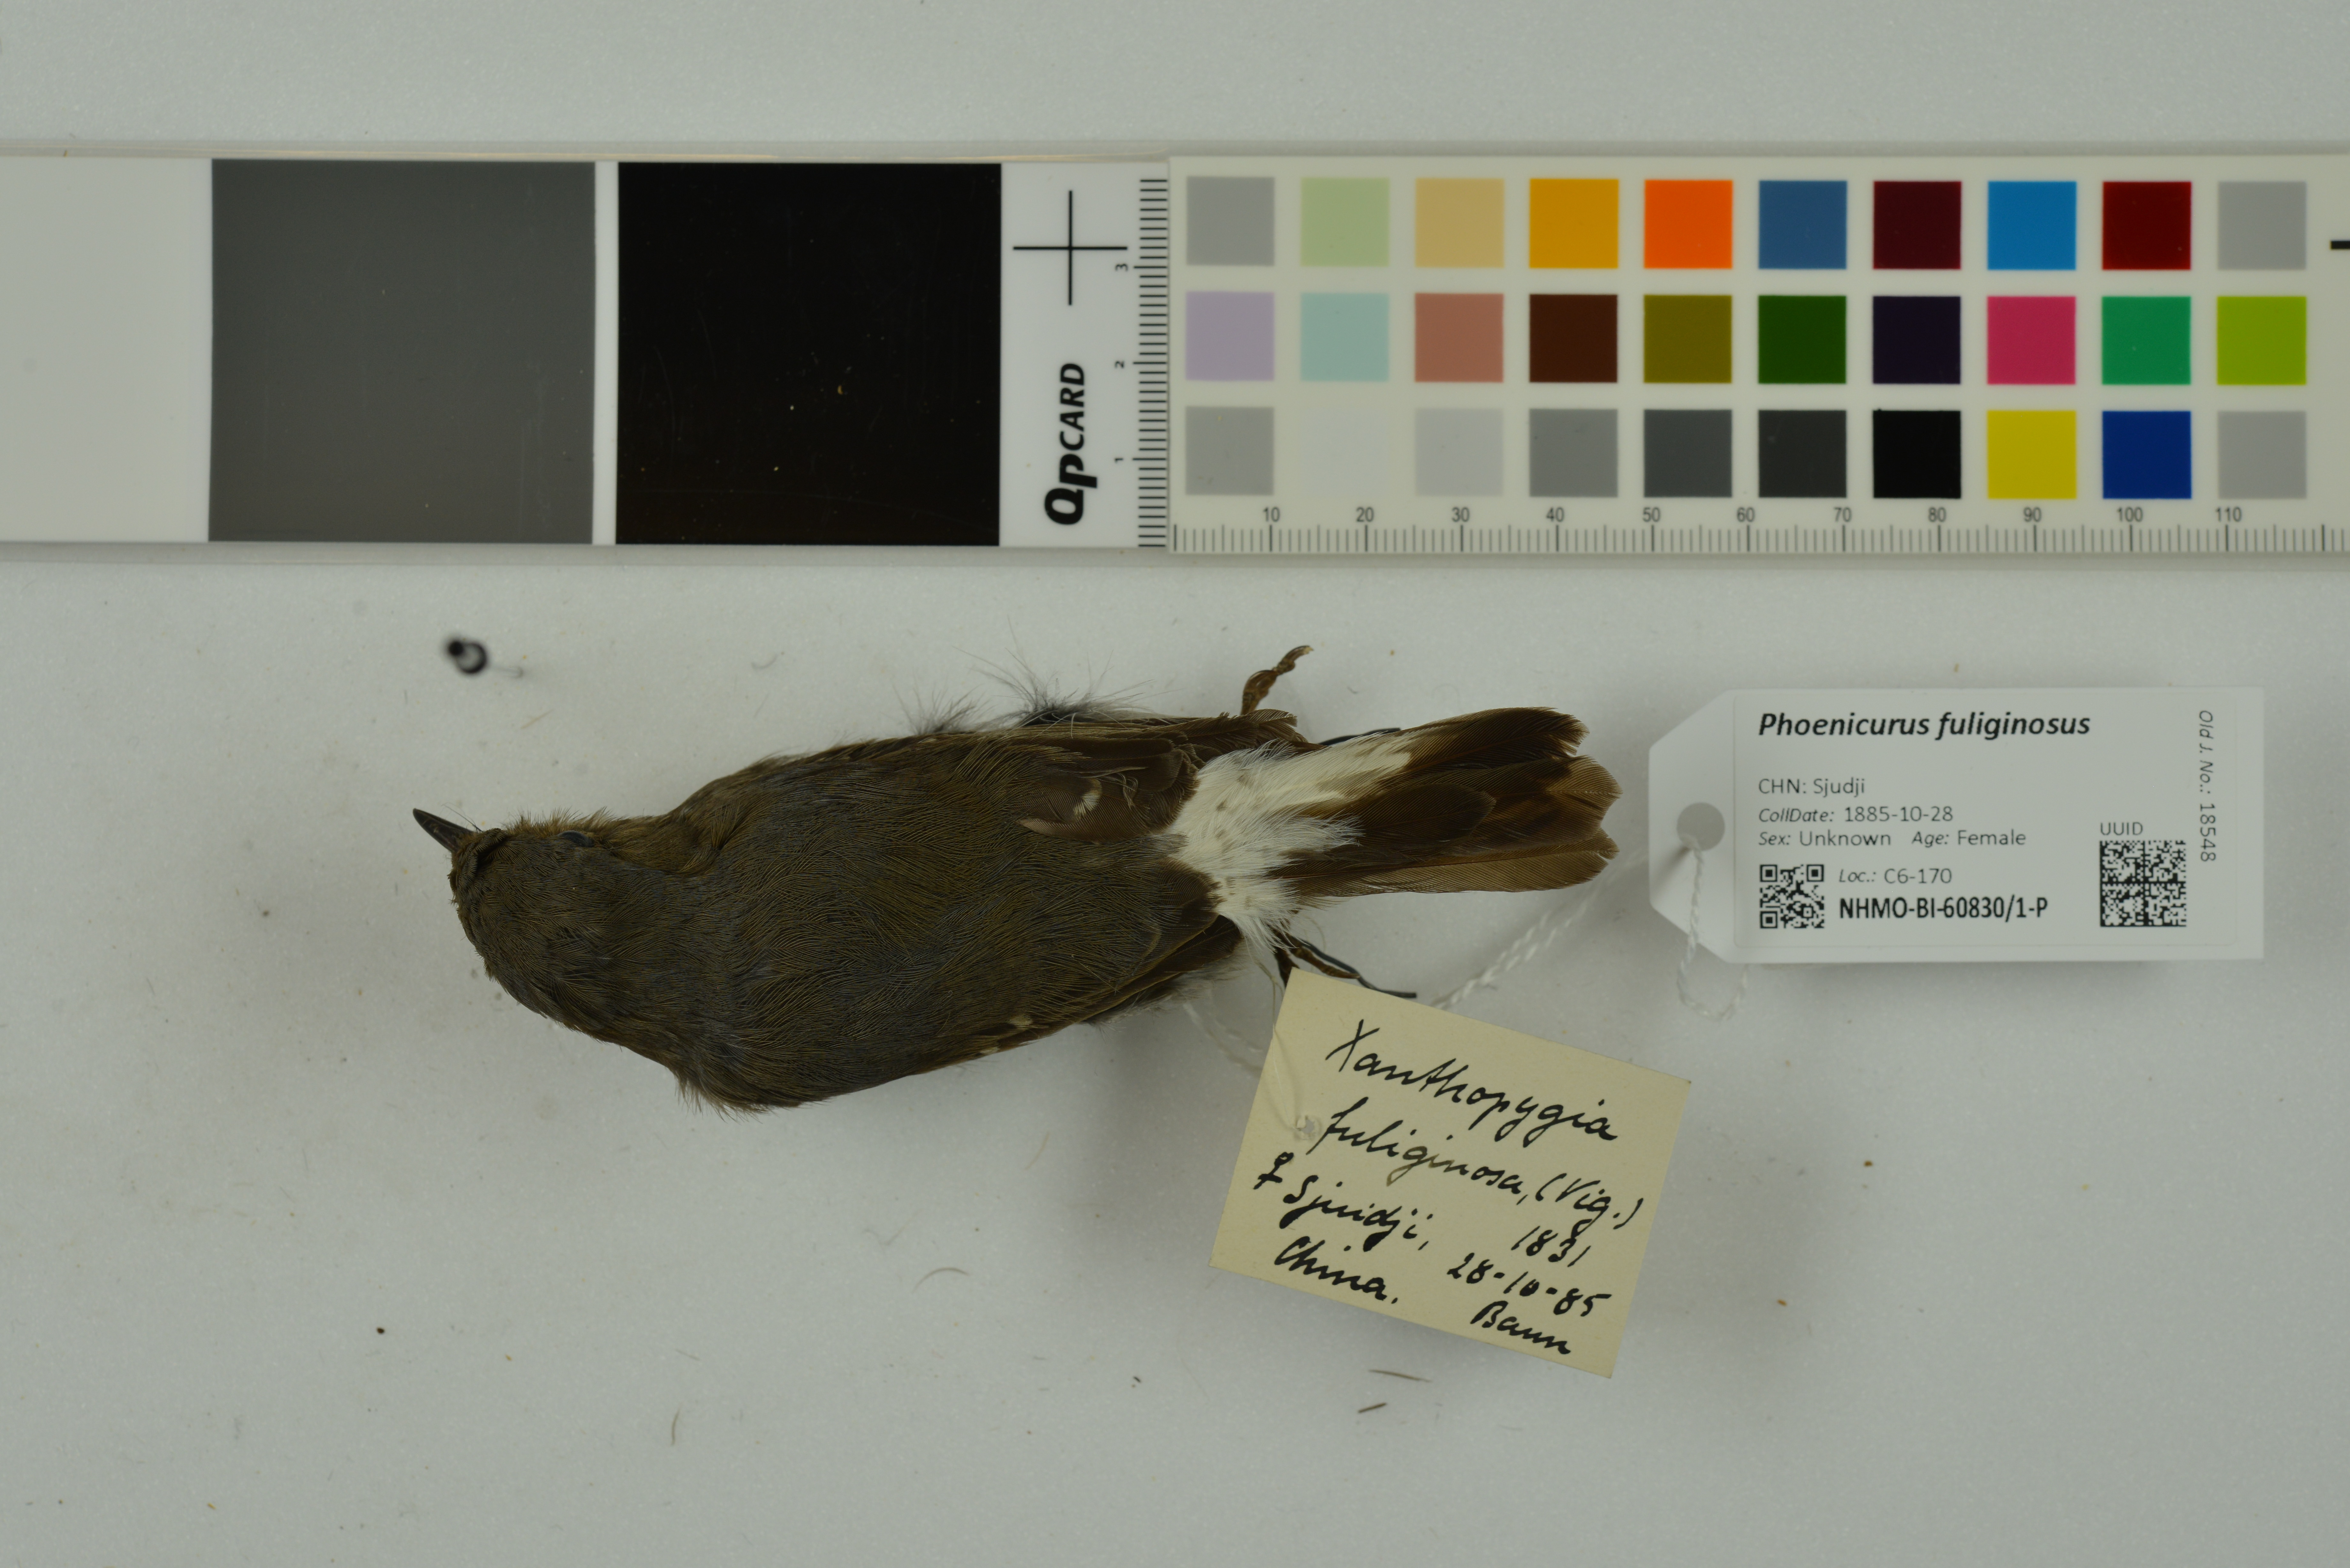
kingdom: Animalia
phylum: Chordata
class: Aves
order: Passeriformes
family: Muscicapidae
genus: Phoenicurus
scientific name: Phoenicurus fuliginosus
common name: Plumbeous water redstart
